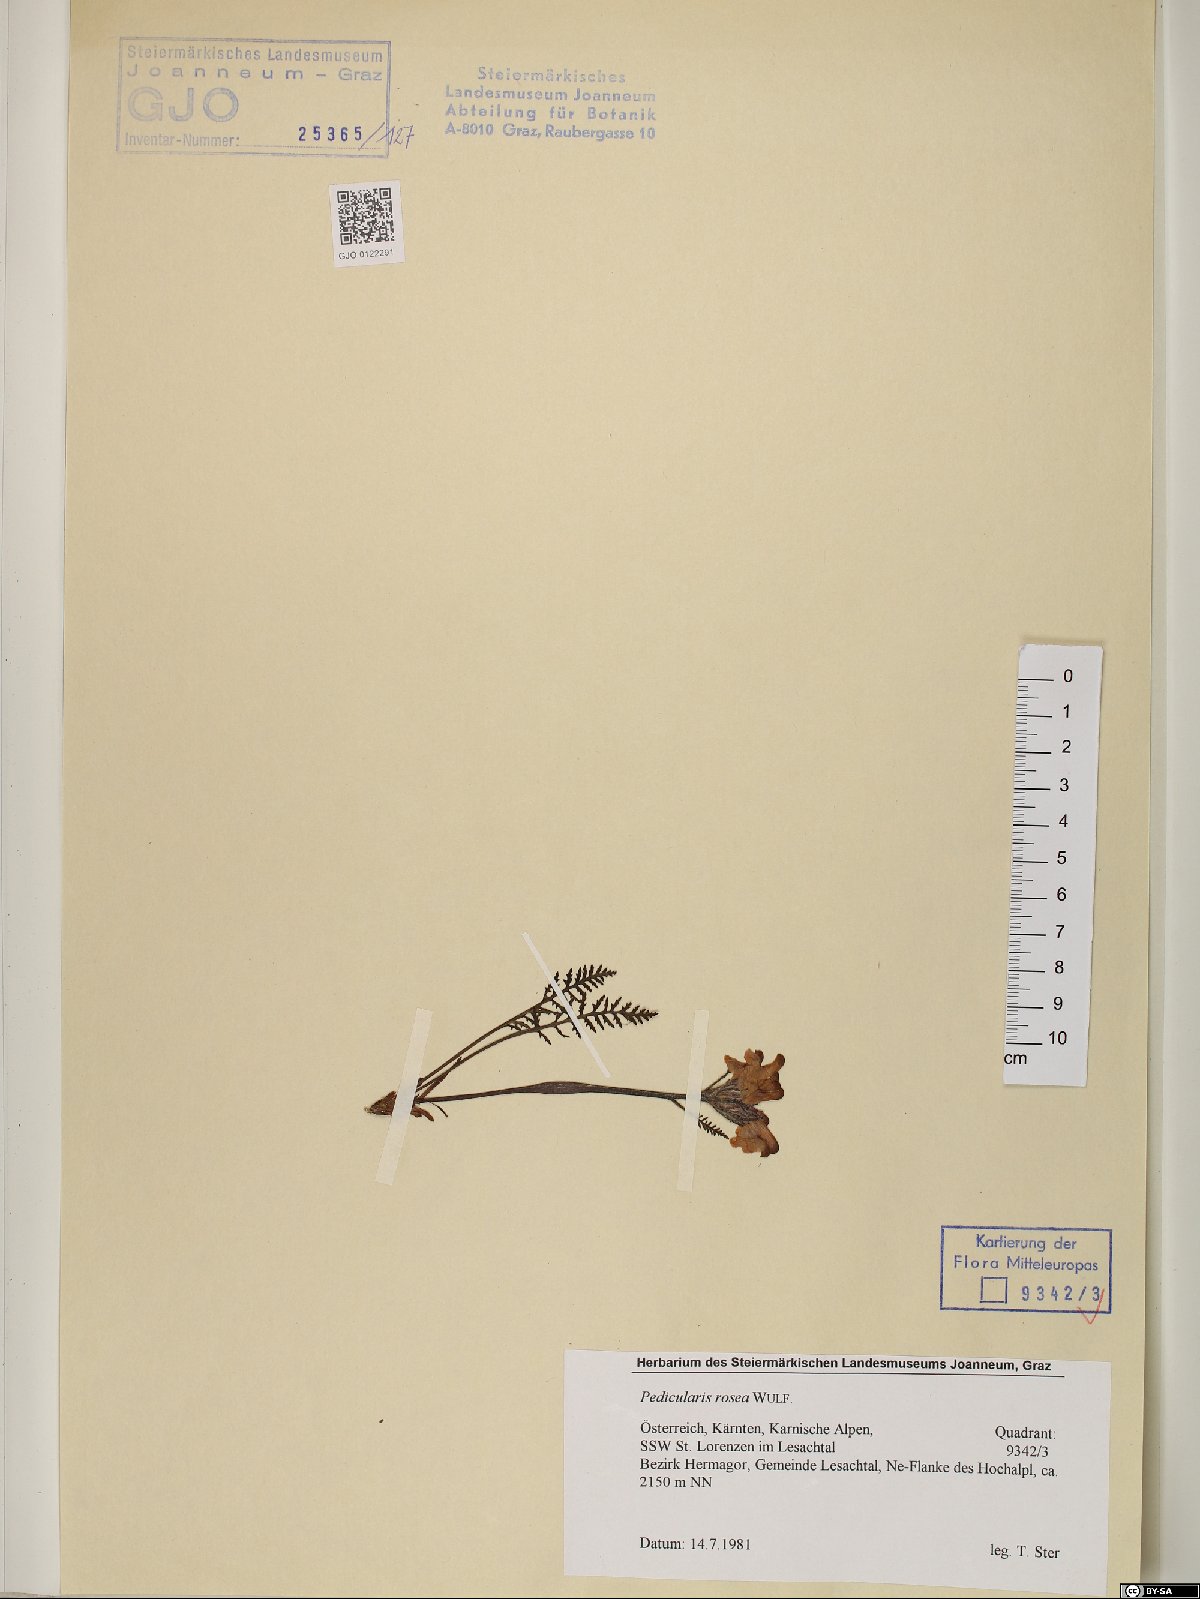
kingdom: Plantae
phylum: Tracheophyta
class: Magnoliopsida
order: Lamiales
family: Orobanchaceae
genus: Pedicularis
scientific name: Pedicularis rosea
